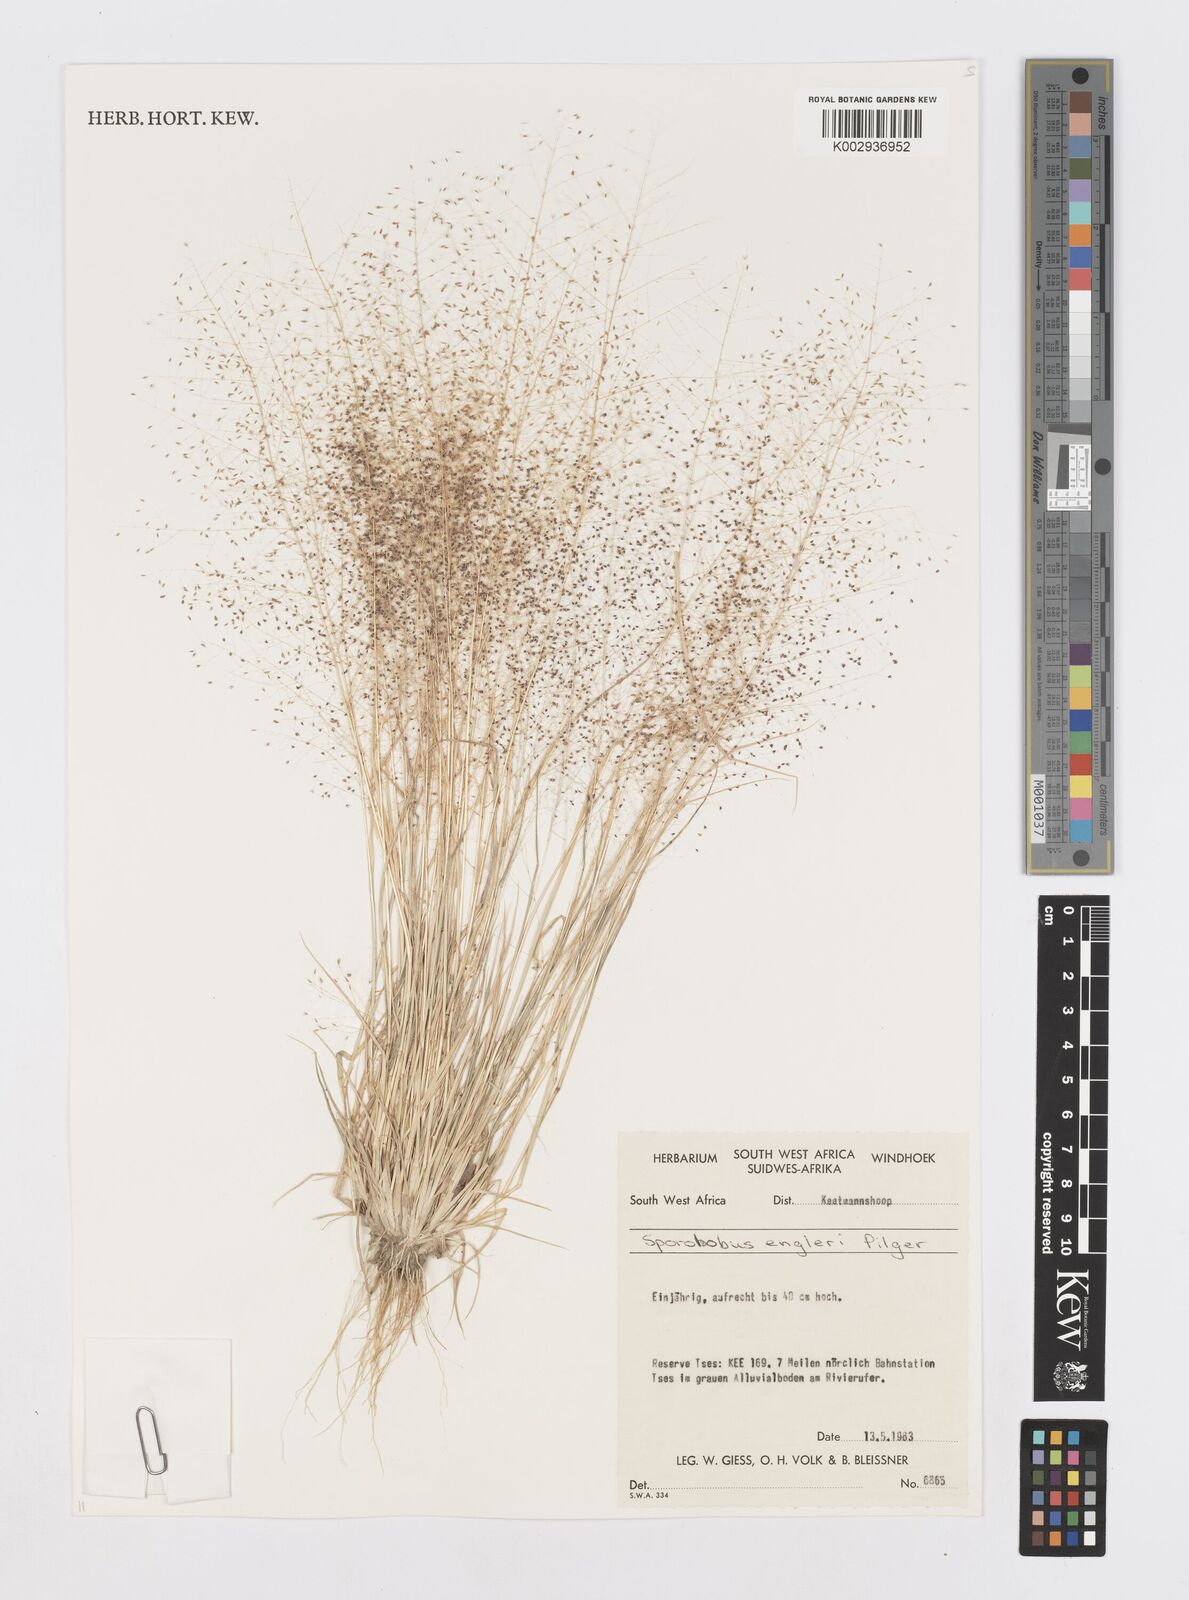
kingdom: Plantae
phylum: Tracheophyta
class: Liliopsida
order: Poales
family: Poaceae
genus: Sporobolus
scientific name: Sporobolus engleri
